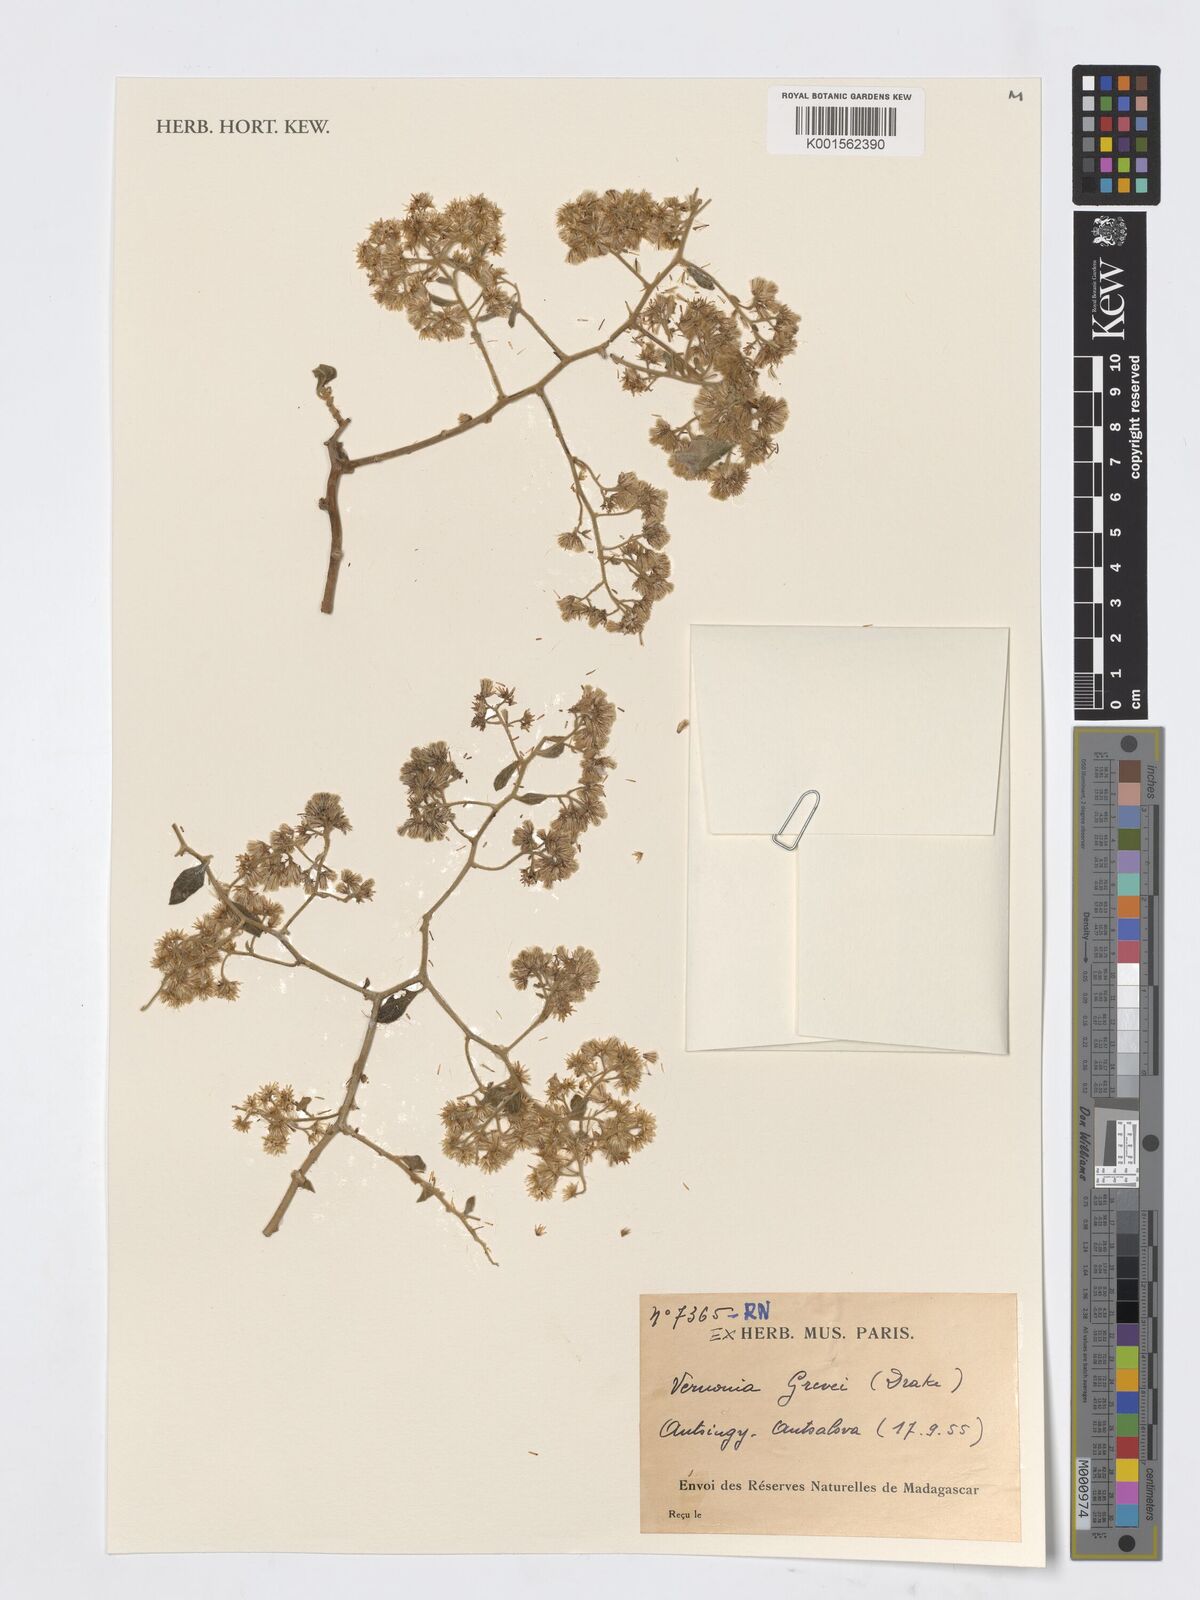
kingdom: Plantae
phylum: Tracheophyta
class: Magnoliopsida
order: Asterales
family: Asteraceae
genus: Distephanus
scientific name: Distephanus grevei
